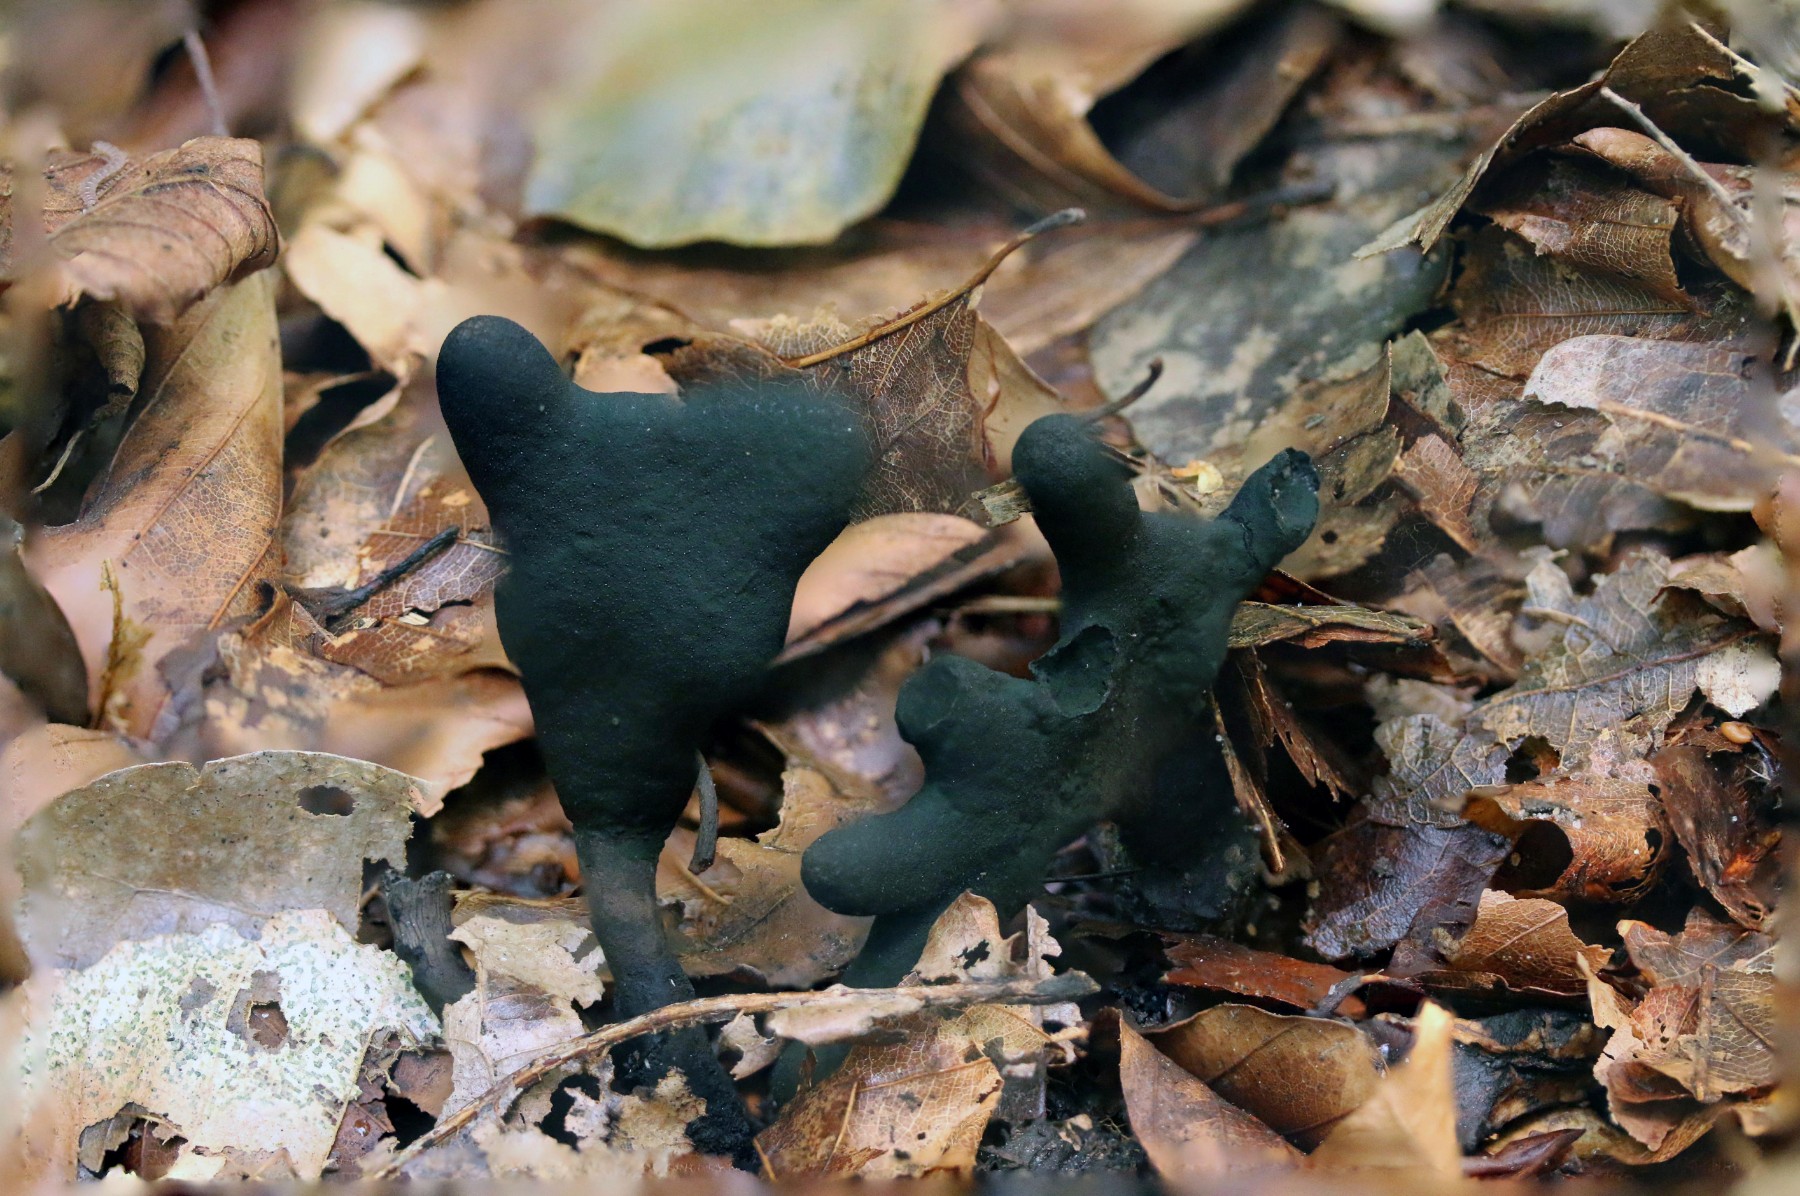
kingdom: Fungi
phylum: Ascomycota
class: Sordariomycetes
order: Xylariales
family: Xylariaceae
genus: Xylaria
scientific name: Xylaria polymorpha
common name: kølle-stødsvamp
